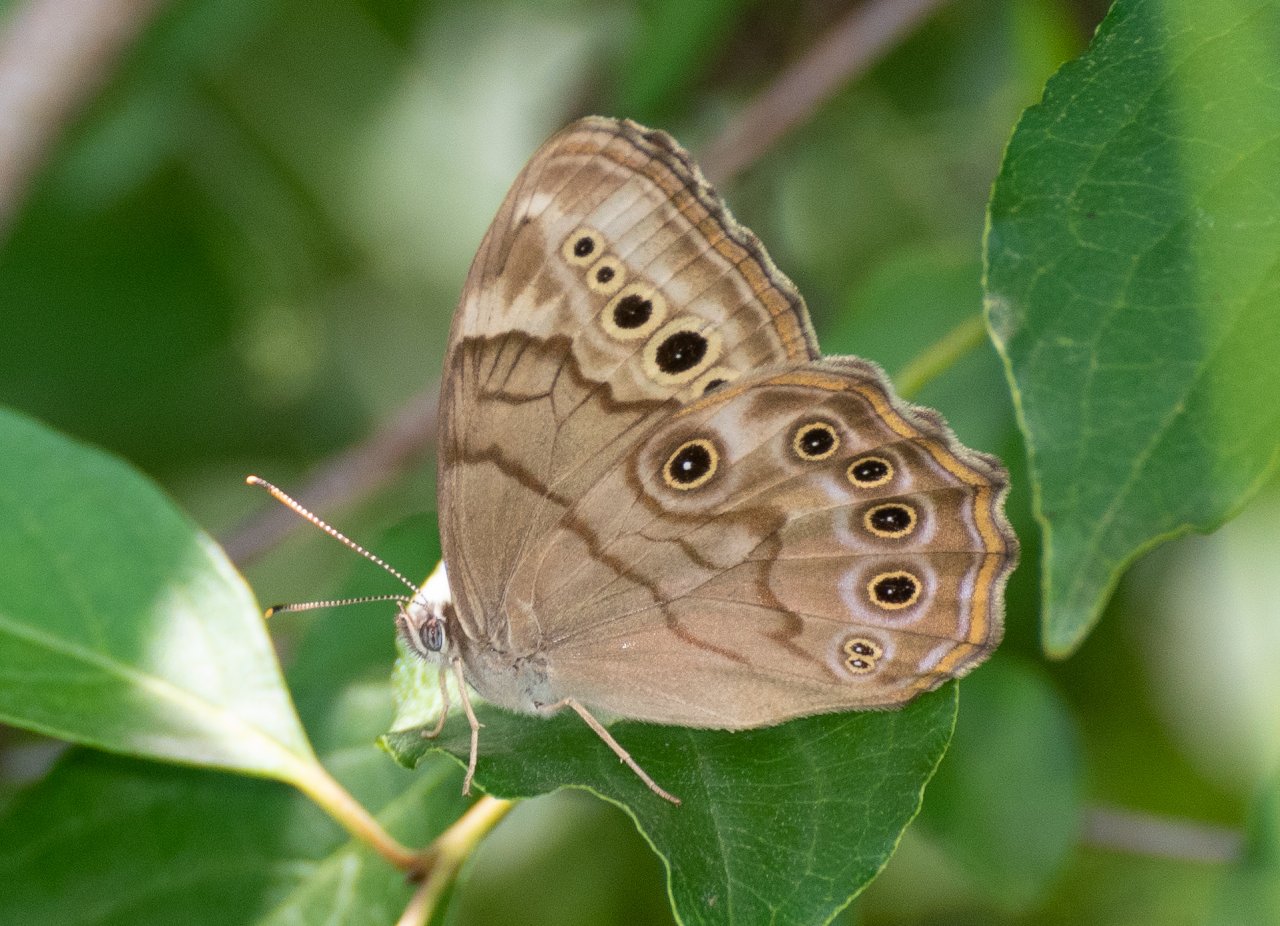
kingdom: Animalia
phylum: Arthropoda
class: Insecta
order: Lepidoptera
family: Nymphalidae
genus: Lethe
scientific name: Lethe anthedon
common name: Northern Pearly-Eye
